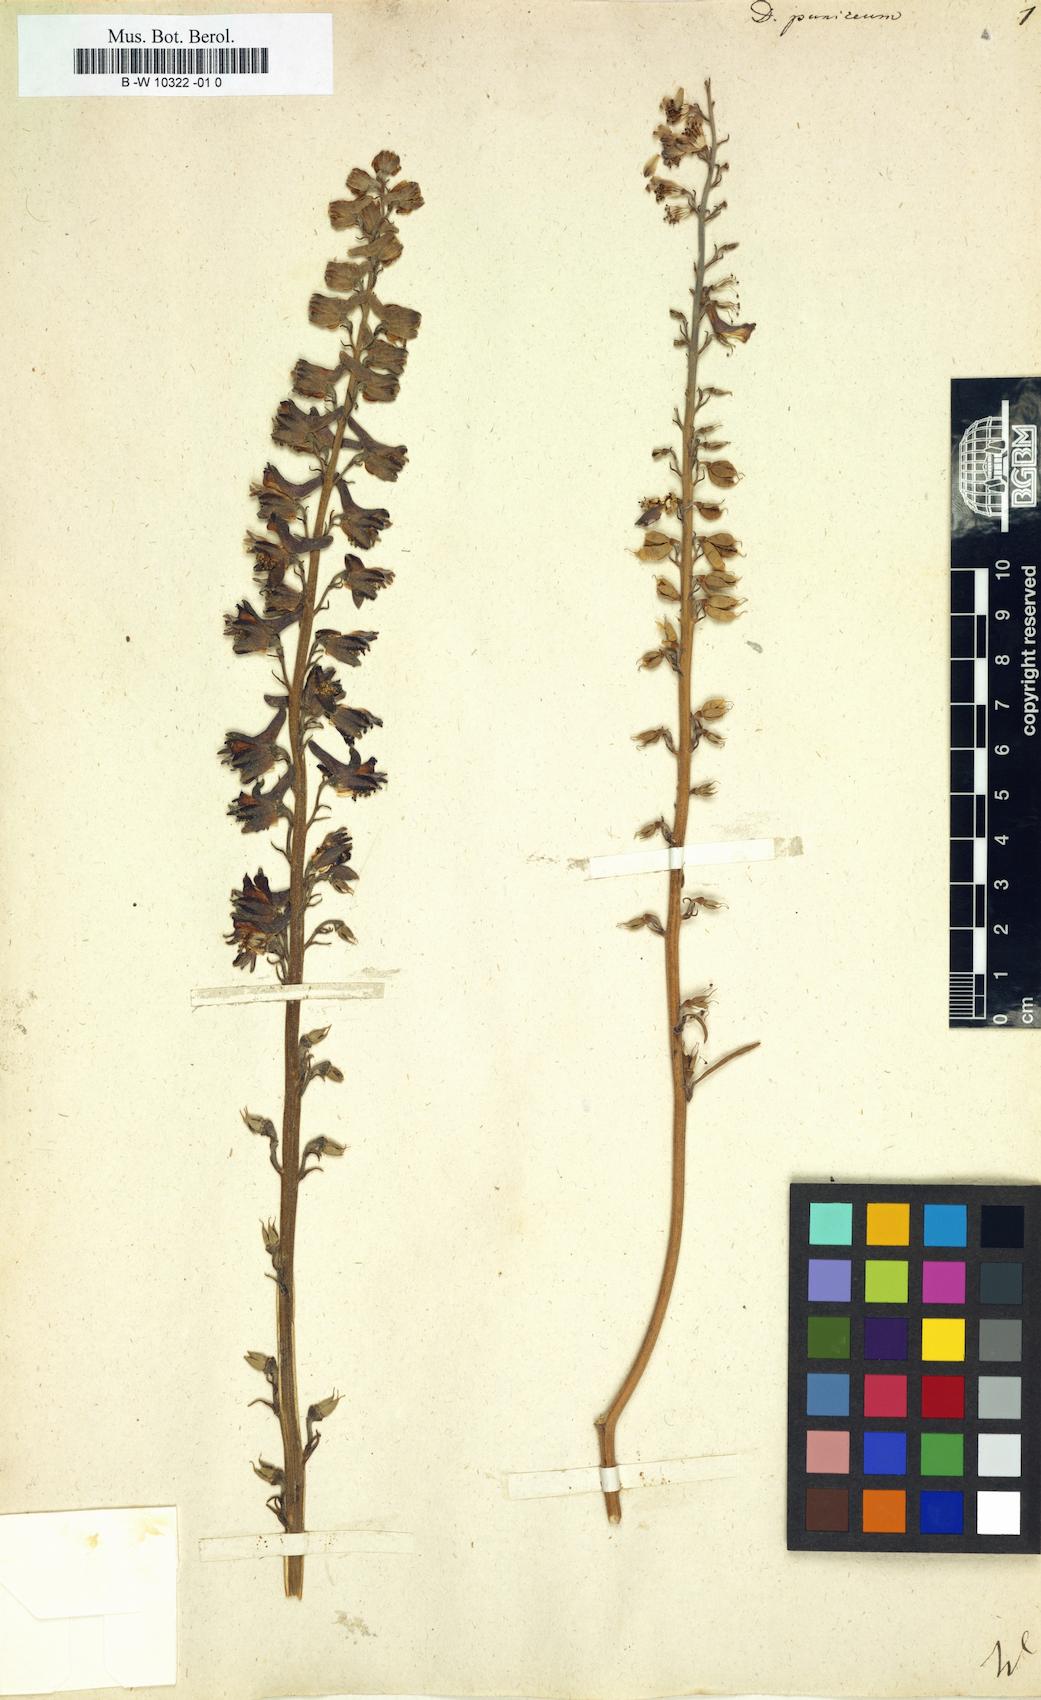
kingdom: Plantae
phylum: Tracheophyta
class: Magnoliopsida
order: Ranunculales
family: Ranunculaceae
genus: Delphinium
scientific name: Delphinium puniceum
